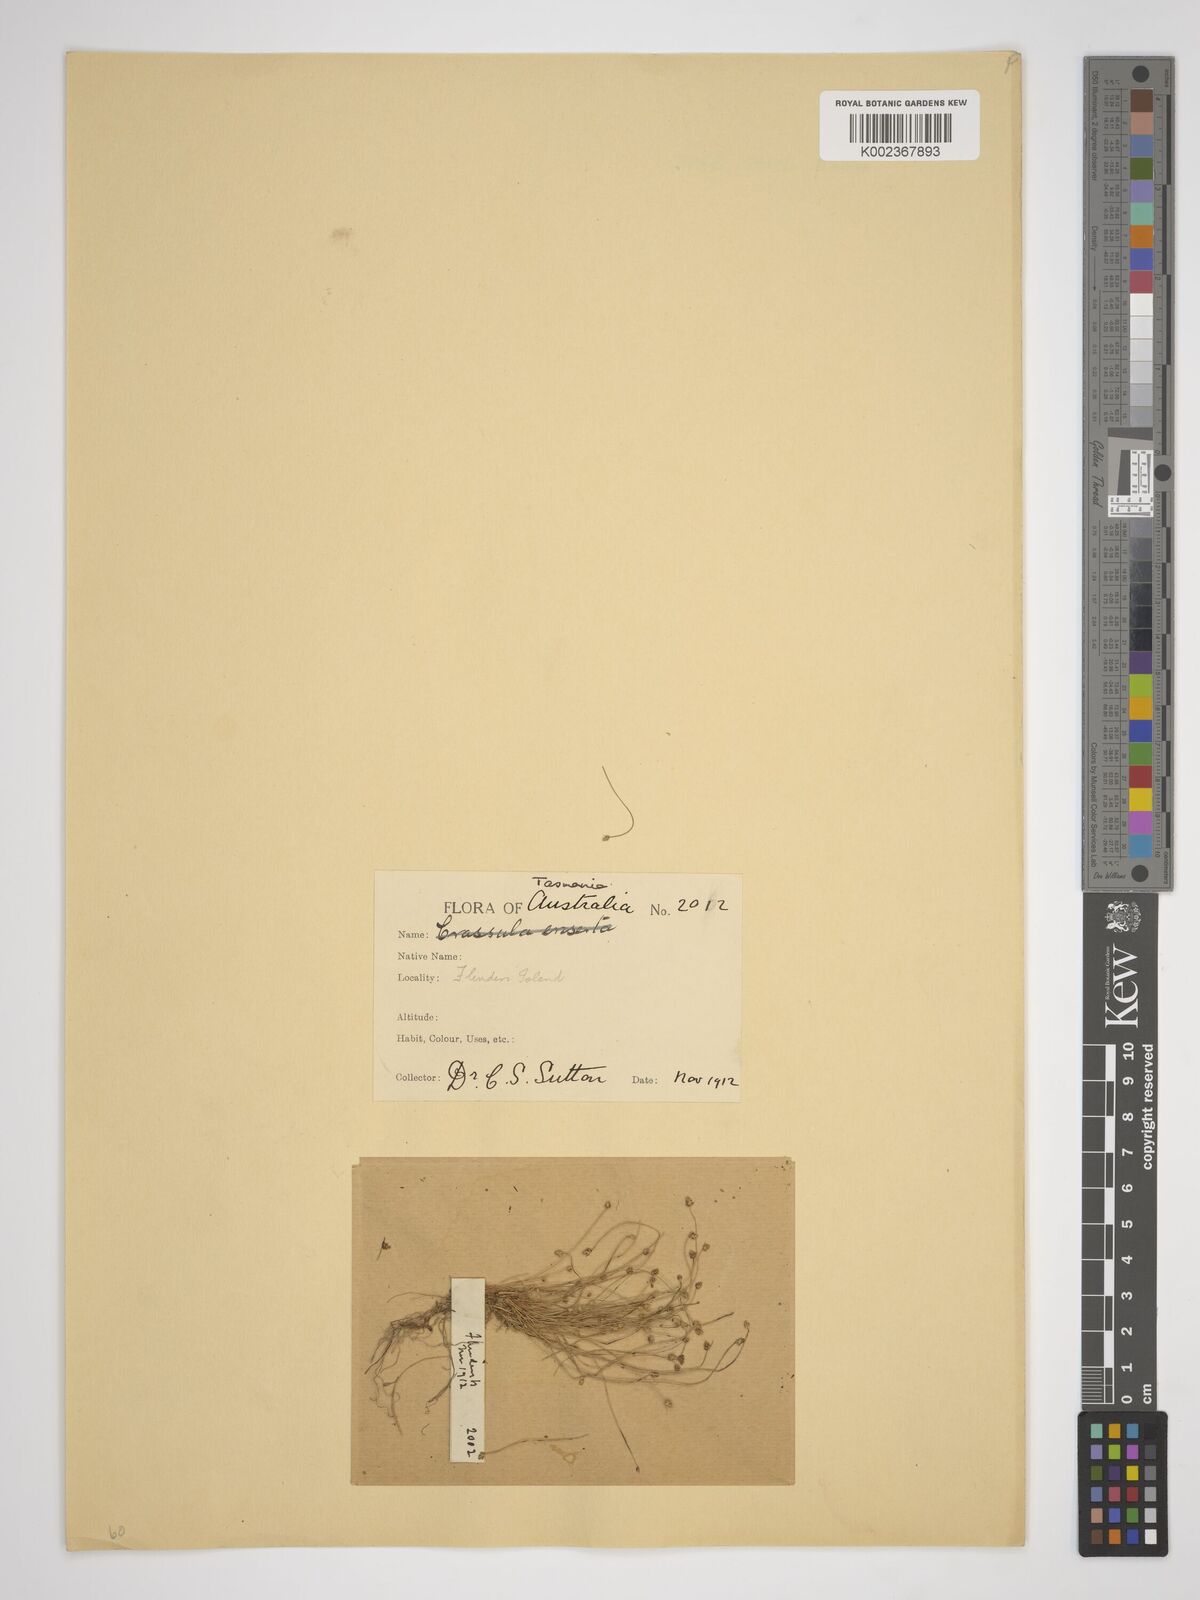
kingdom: Plantae
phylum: Tracheophyta
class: Liliopsida
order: Poales
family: Cyperaceae
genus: Isolepis
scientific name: Isolepis cernua
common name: Slender club-rush
